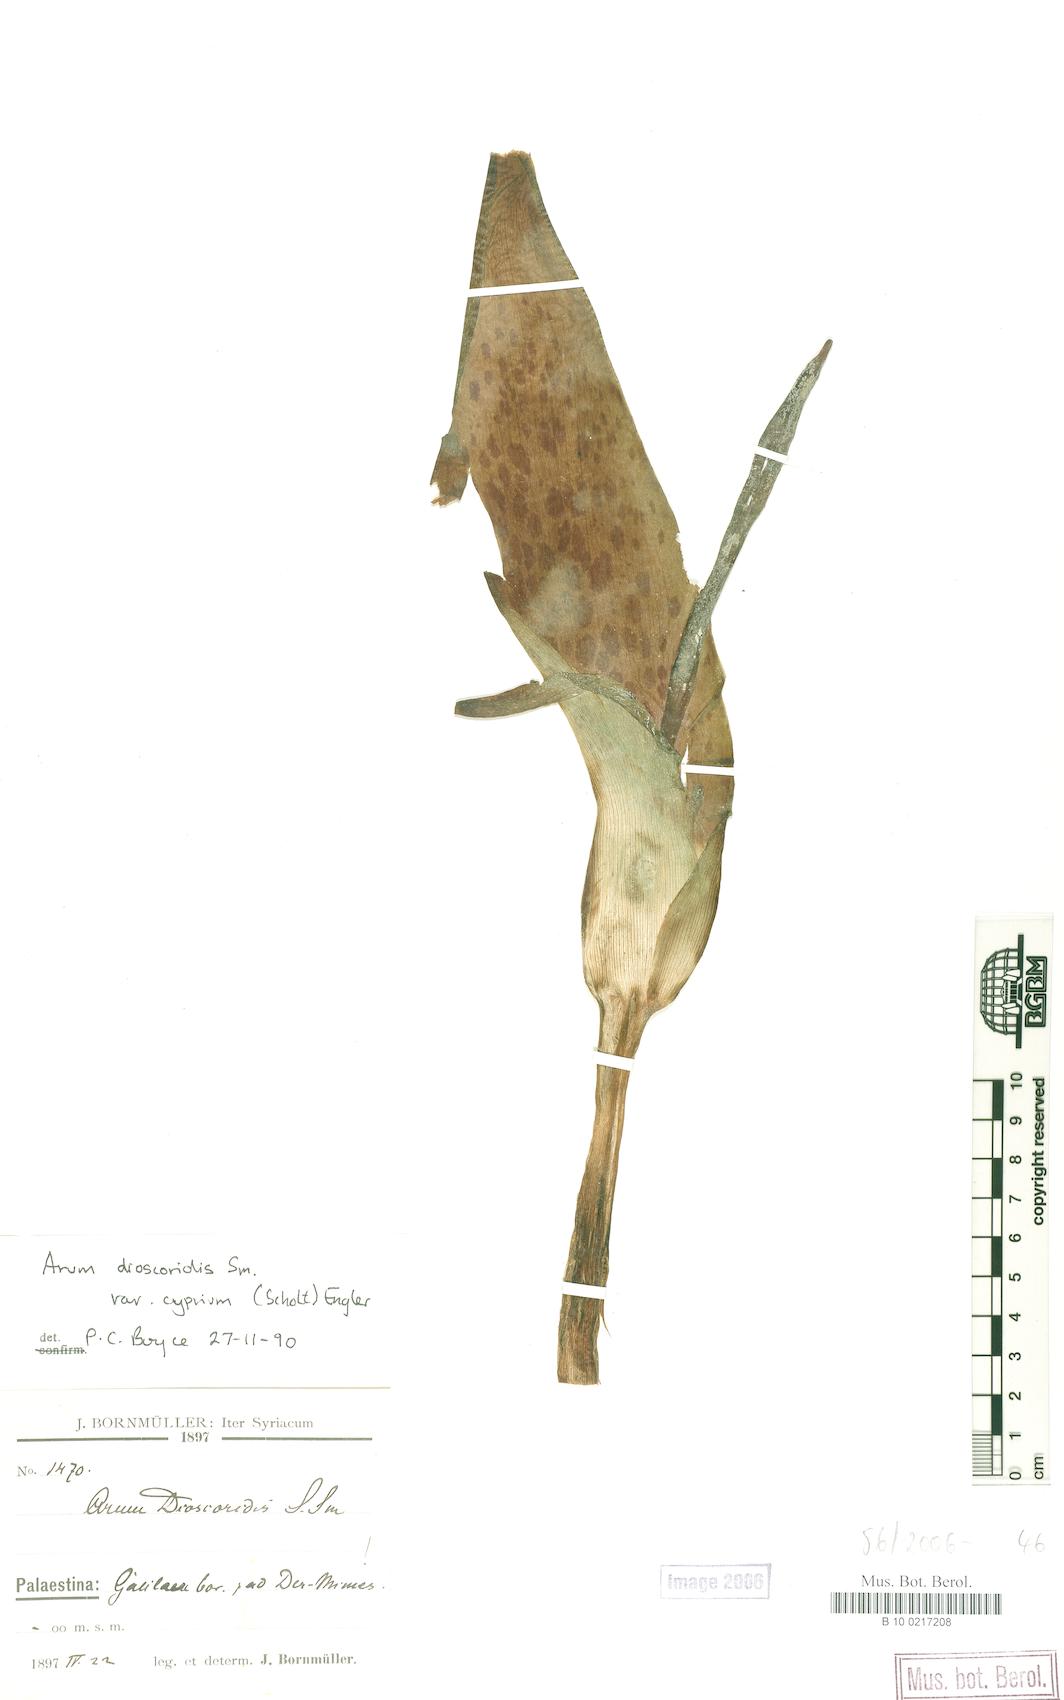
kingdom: Plantae
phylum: Tracheophyta
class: Liliopsida
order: Alismatales
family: Araceae
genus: Arum
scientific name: Arum dioscoridis
